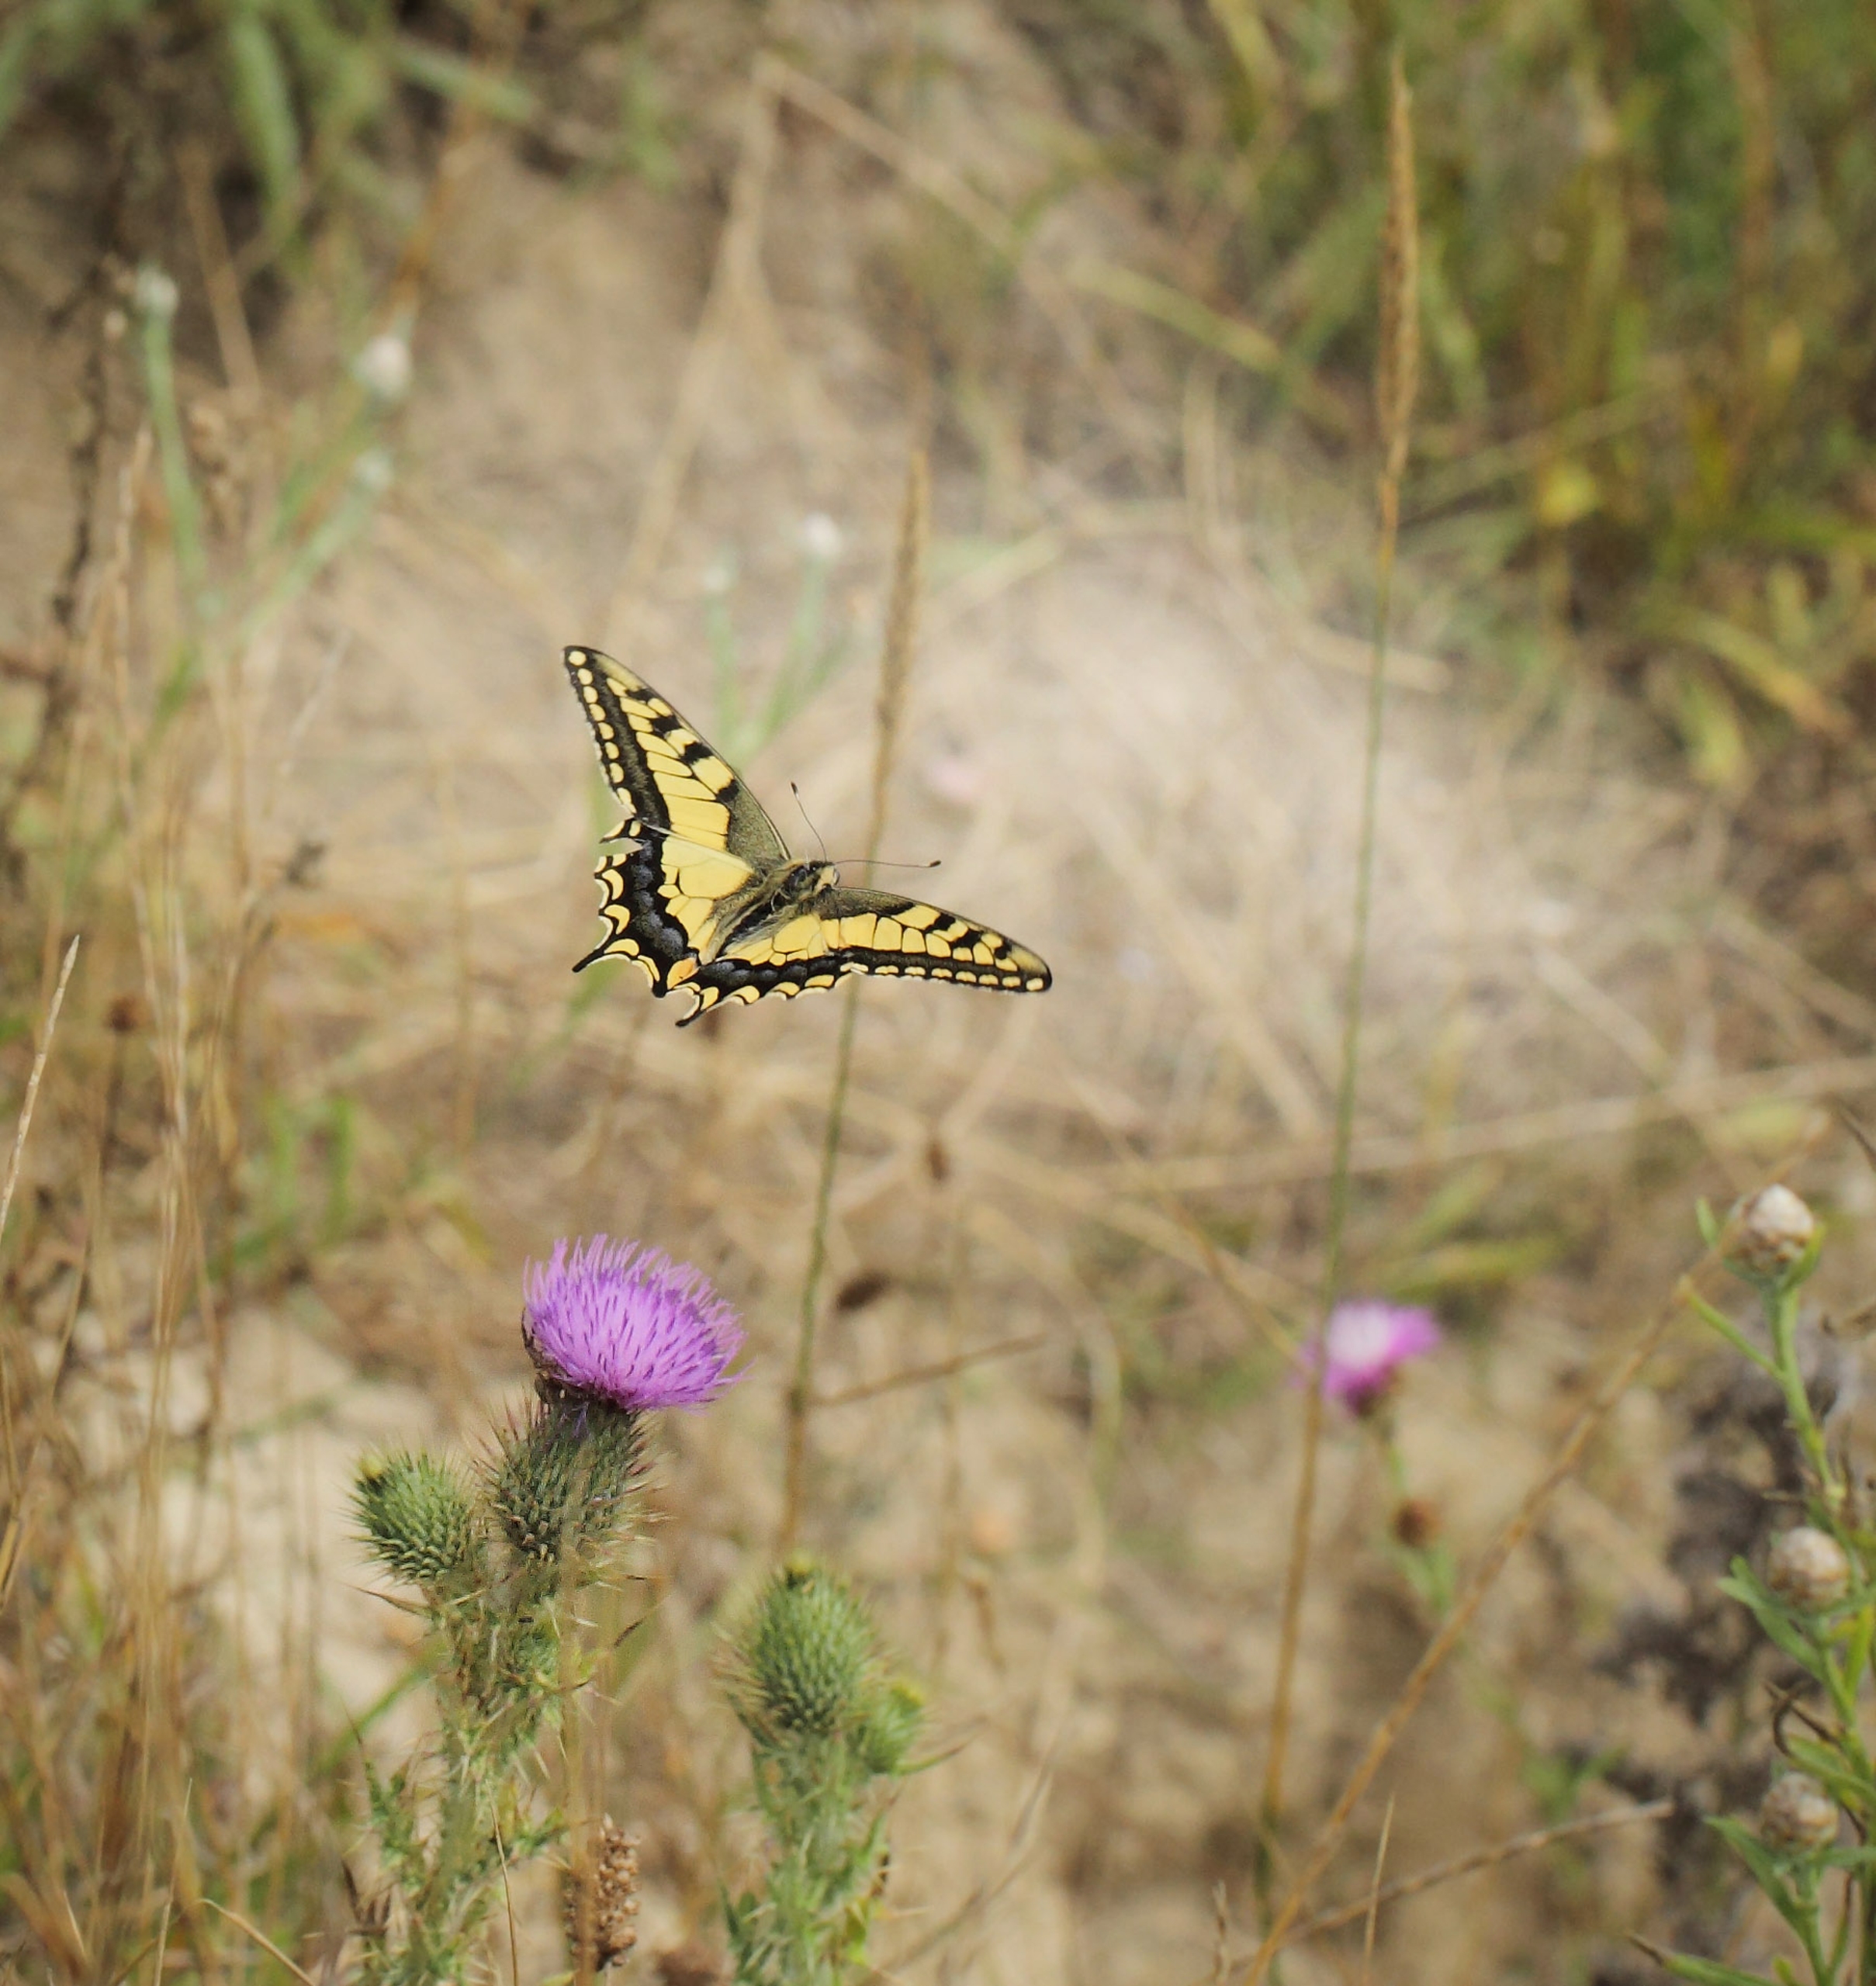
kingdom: Animalia
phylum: Arthropoda
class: Insecta
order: Lepidoptera
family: Papilionidae
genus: Papilio
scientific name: Papilio machaon
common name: Svalehale
